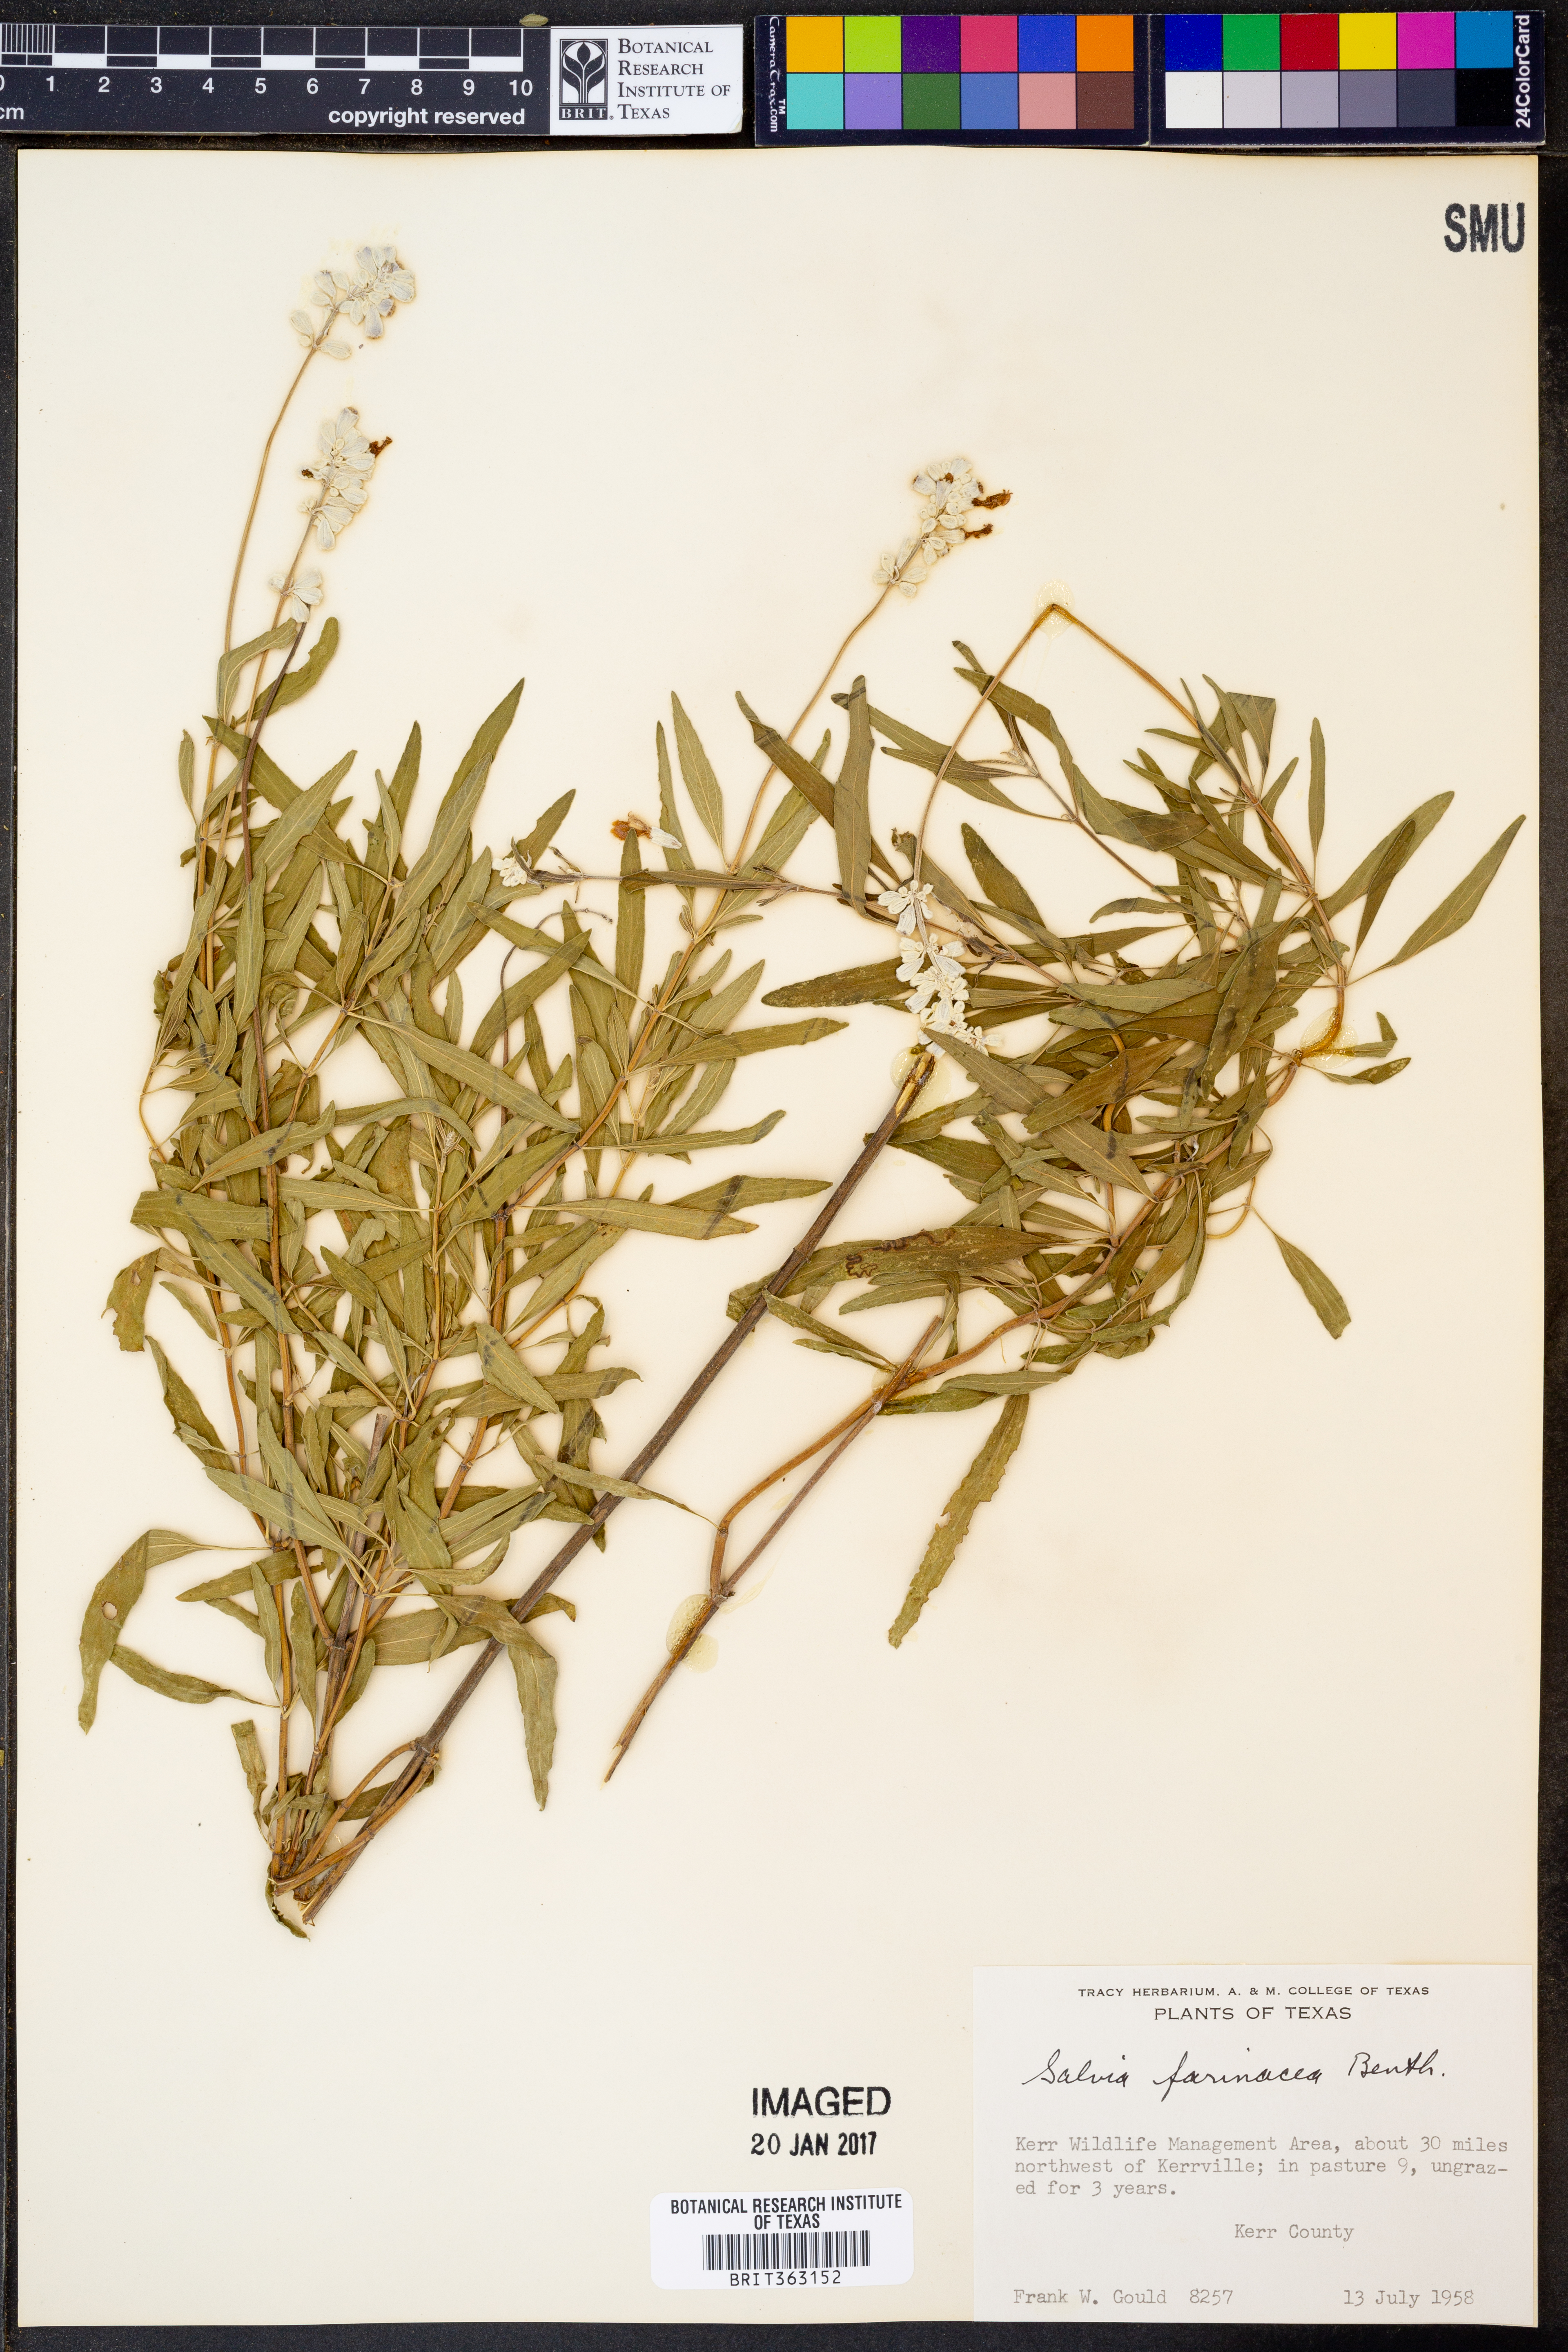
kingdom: Plantae
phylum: Tracheophyta
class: Magnoliopsida
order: Lamiales
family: Lamiaceae
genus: Salvia
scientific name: Salvia farinacea
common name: Mealy sage
